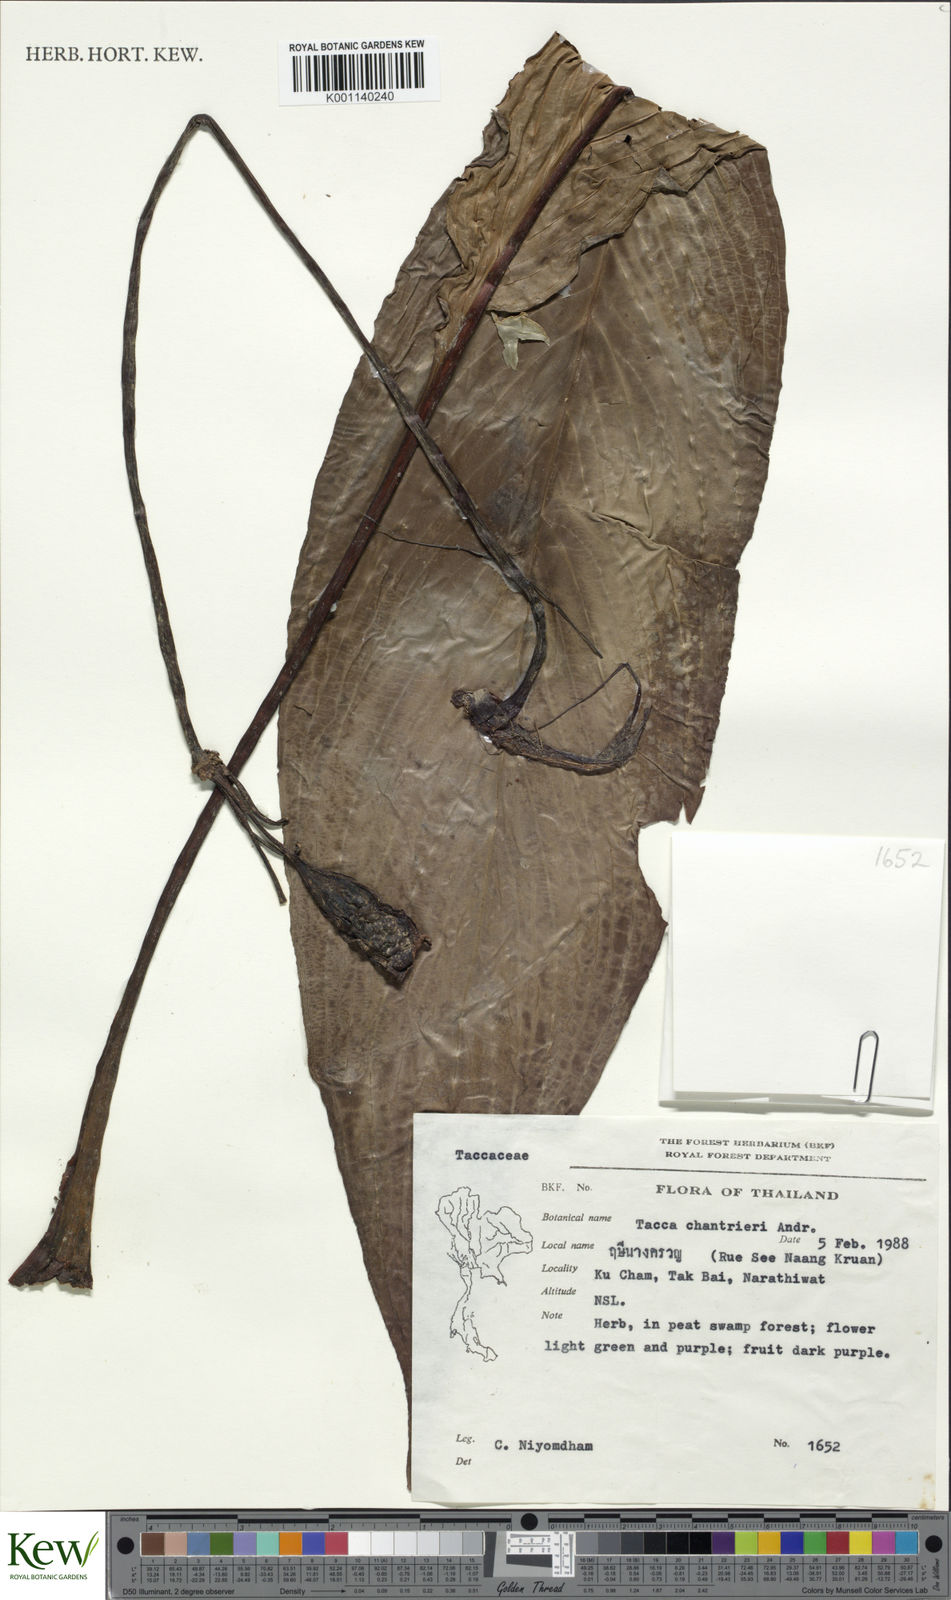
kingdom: Plantae
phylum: Tracheophyta
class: Liliopsida
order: Dioscoreales
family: Dioscoreaceae
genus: Tacca
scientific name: Tacca
